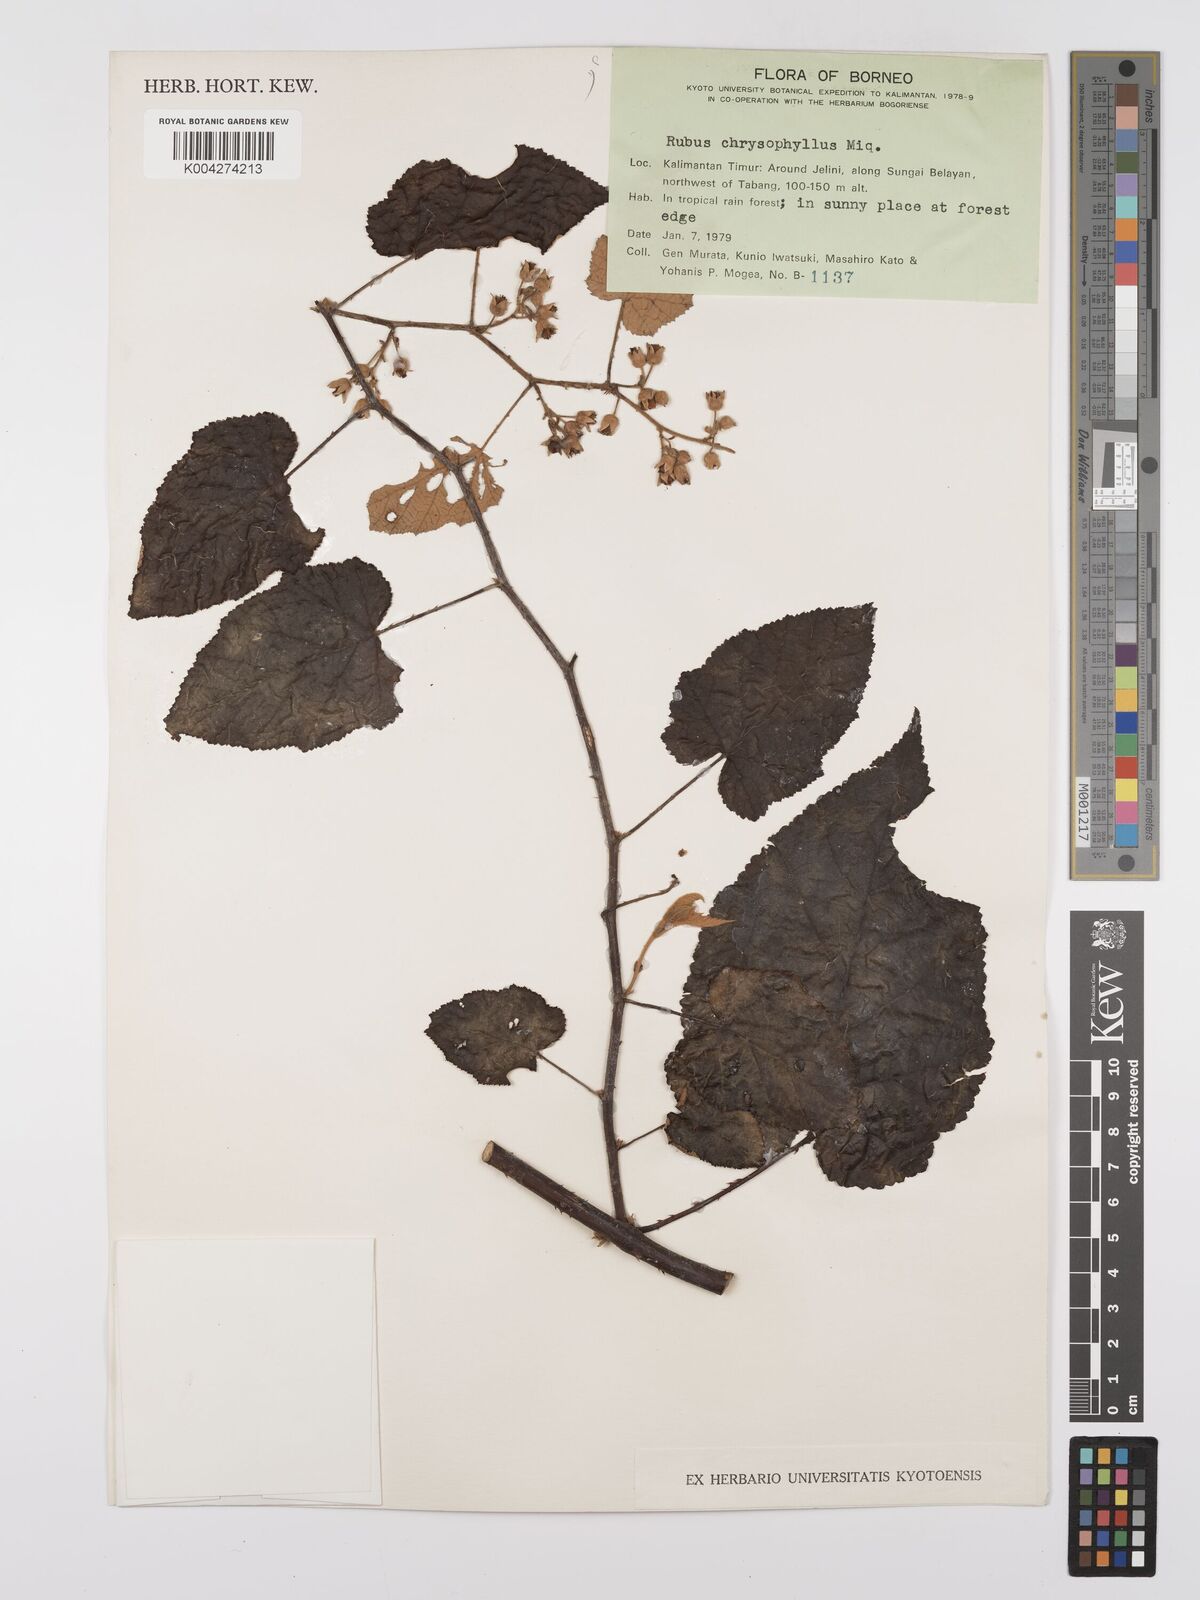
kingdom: Plantae
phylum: Tracheophyta
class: Magnoliopsida
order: Rosales
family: Rosaceae
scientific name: Rosaceae
